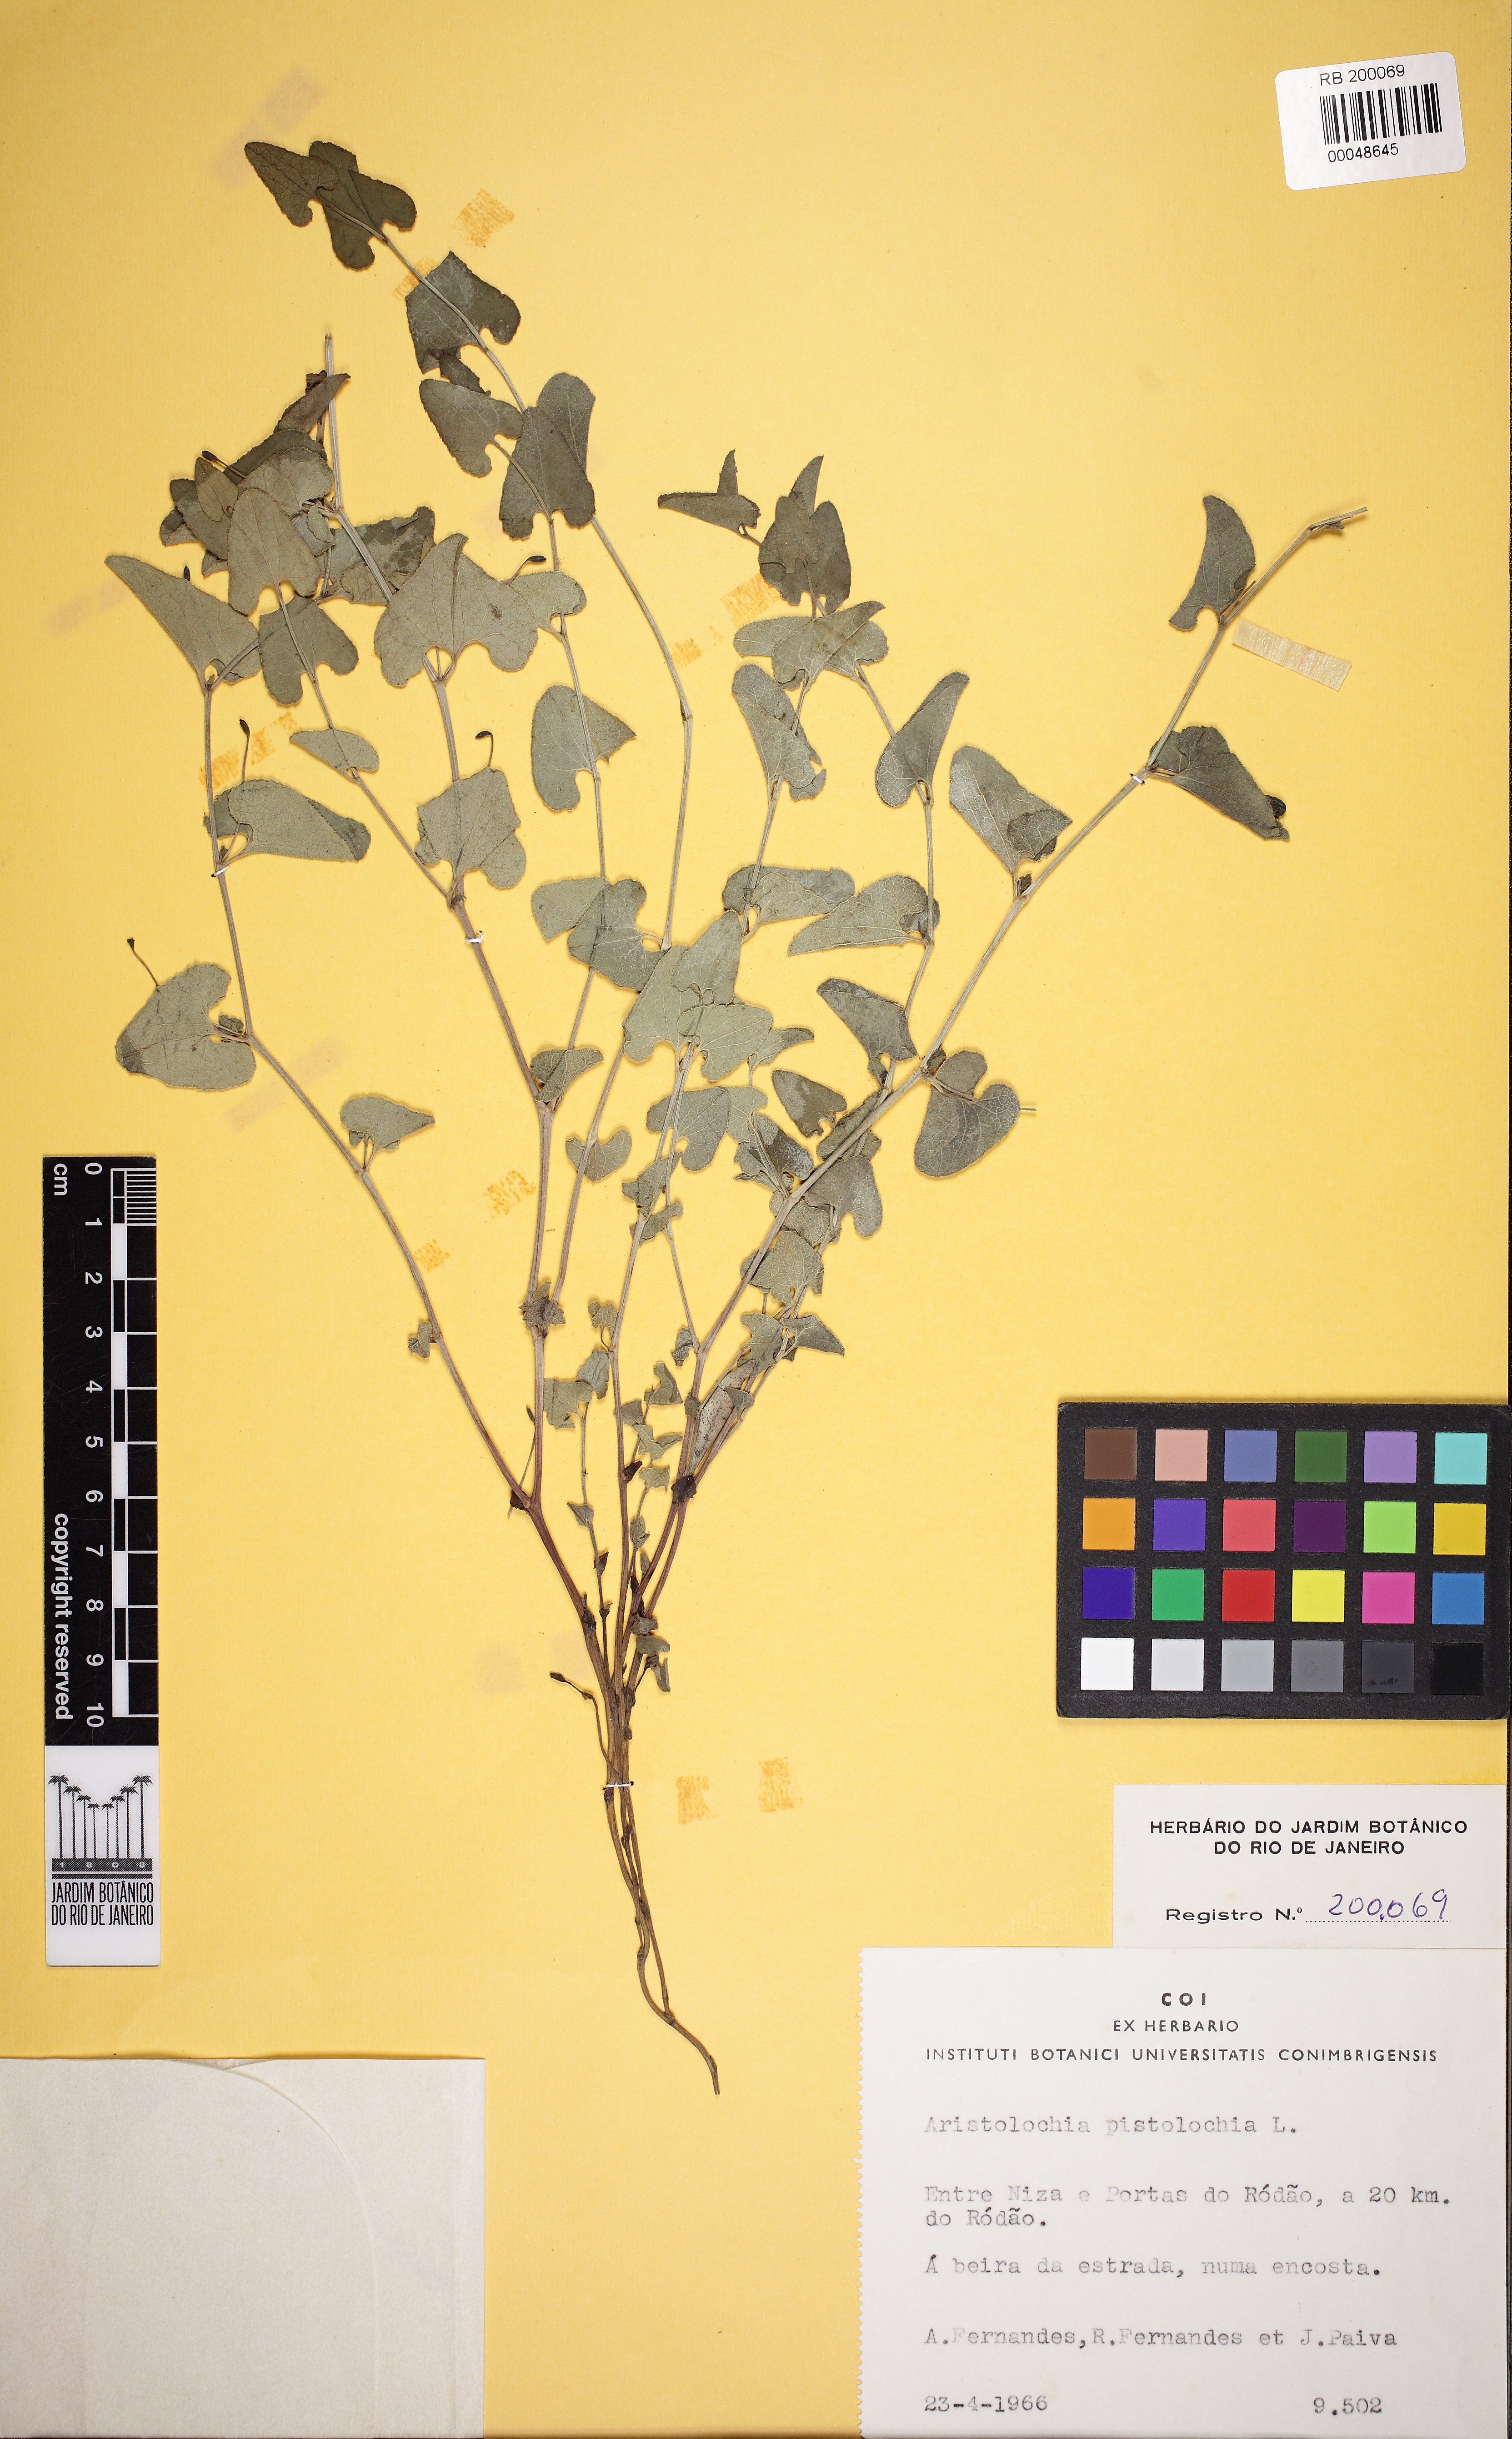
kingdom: Plantae
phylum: Tracheophyta
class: Magnoliopsida
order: Piperales
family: Aristolochiaceae
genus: Aristolochia
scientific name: Aristolochia pistolochia
